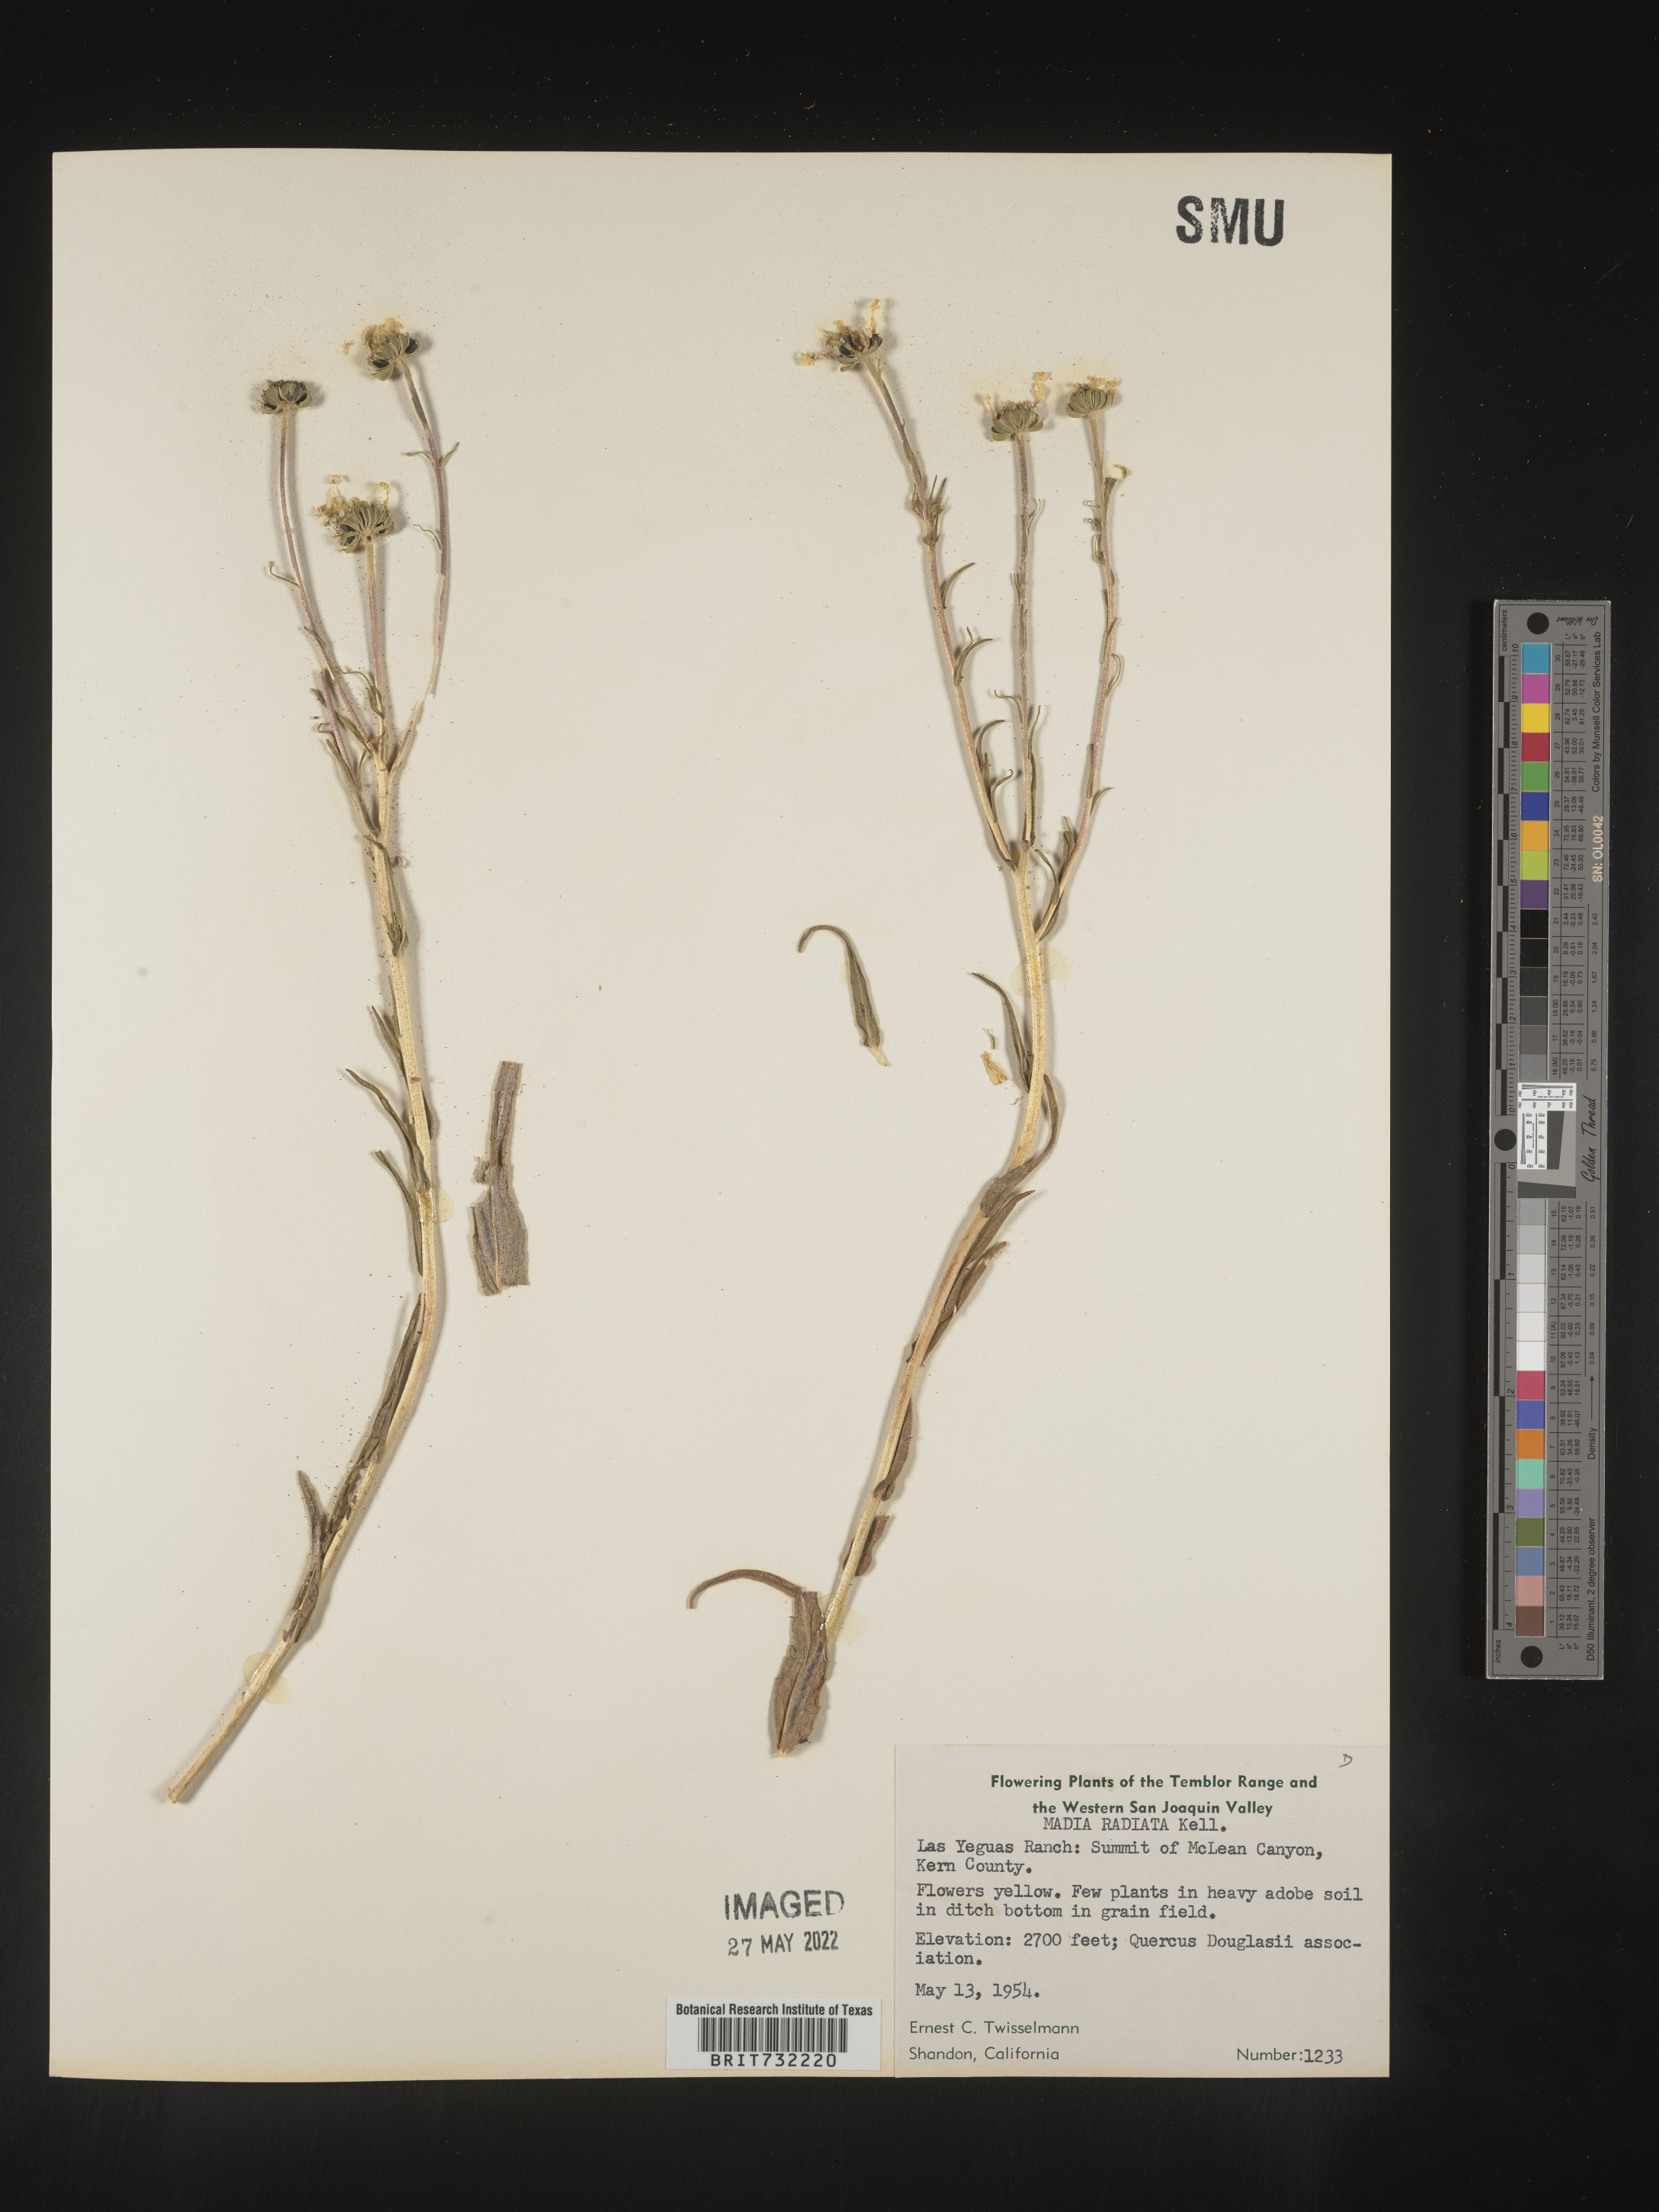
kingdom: Plantae
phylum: Tracheophyta
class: Magnoliopsida
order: Asterales
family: Asteraceae
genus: Madia
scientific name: Madia
